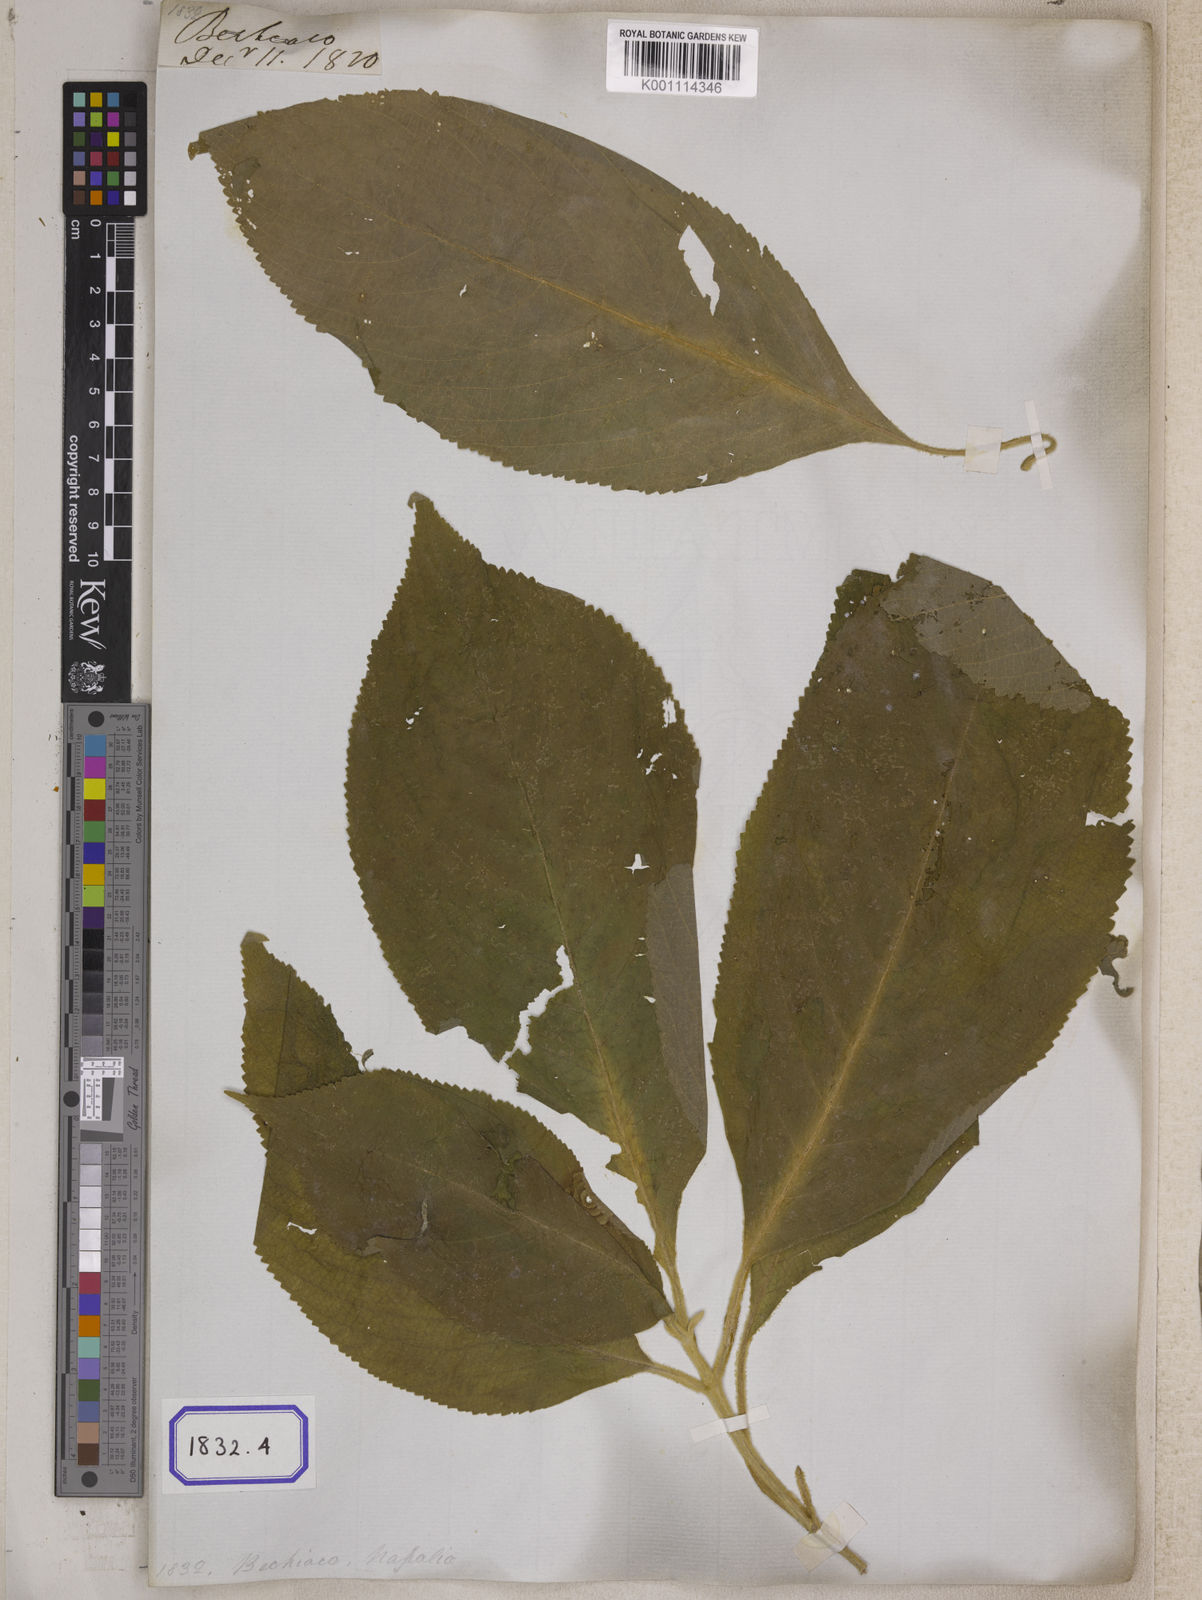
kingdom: Plantae
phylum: Tracheophyta
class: Magnoliopsida
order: Lamiales
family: Lamiaceae
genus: Callicarpa
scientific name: Callicarpa macrophylla
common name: Urn-fruit beauty-berry
